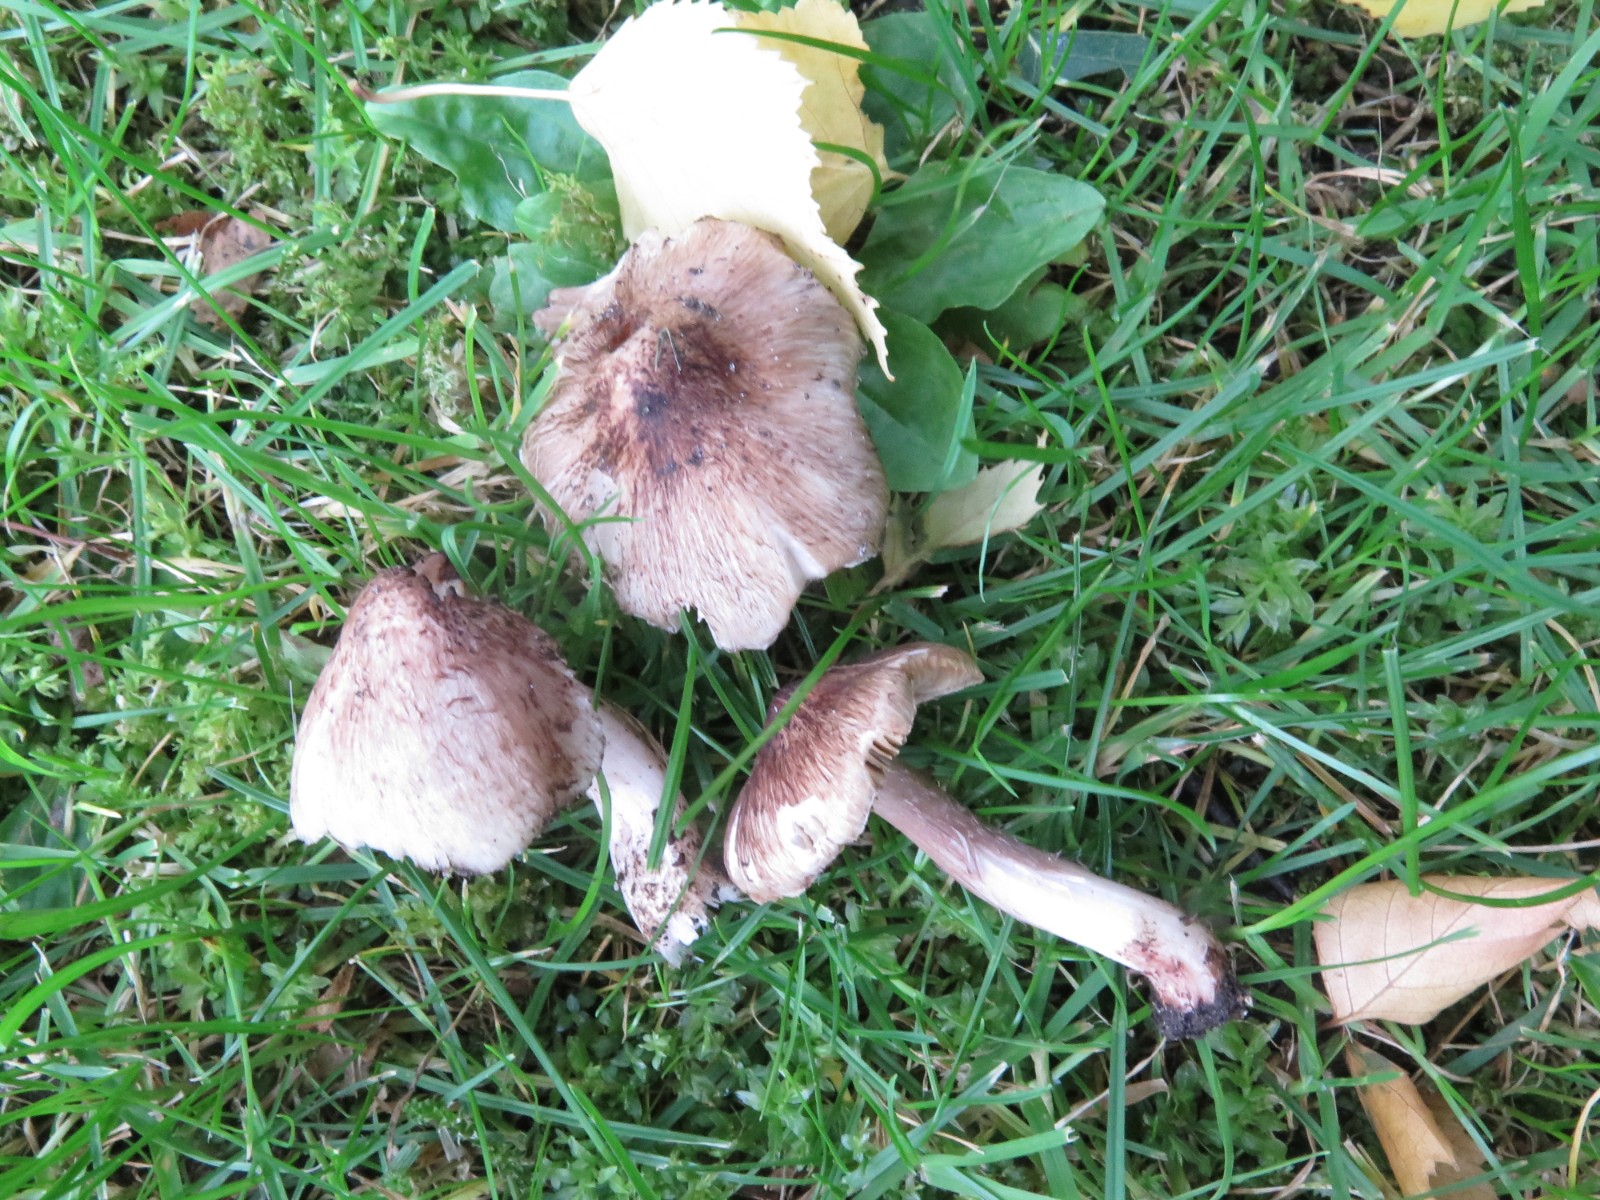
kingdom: Fungi
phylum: Basidiomycota
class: Agaricomycetes
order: Agaricales
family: Inocybaceae
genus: Inosperma
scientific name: Inosperma adaequatum
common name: vinrød trævlhat
